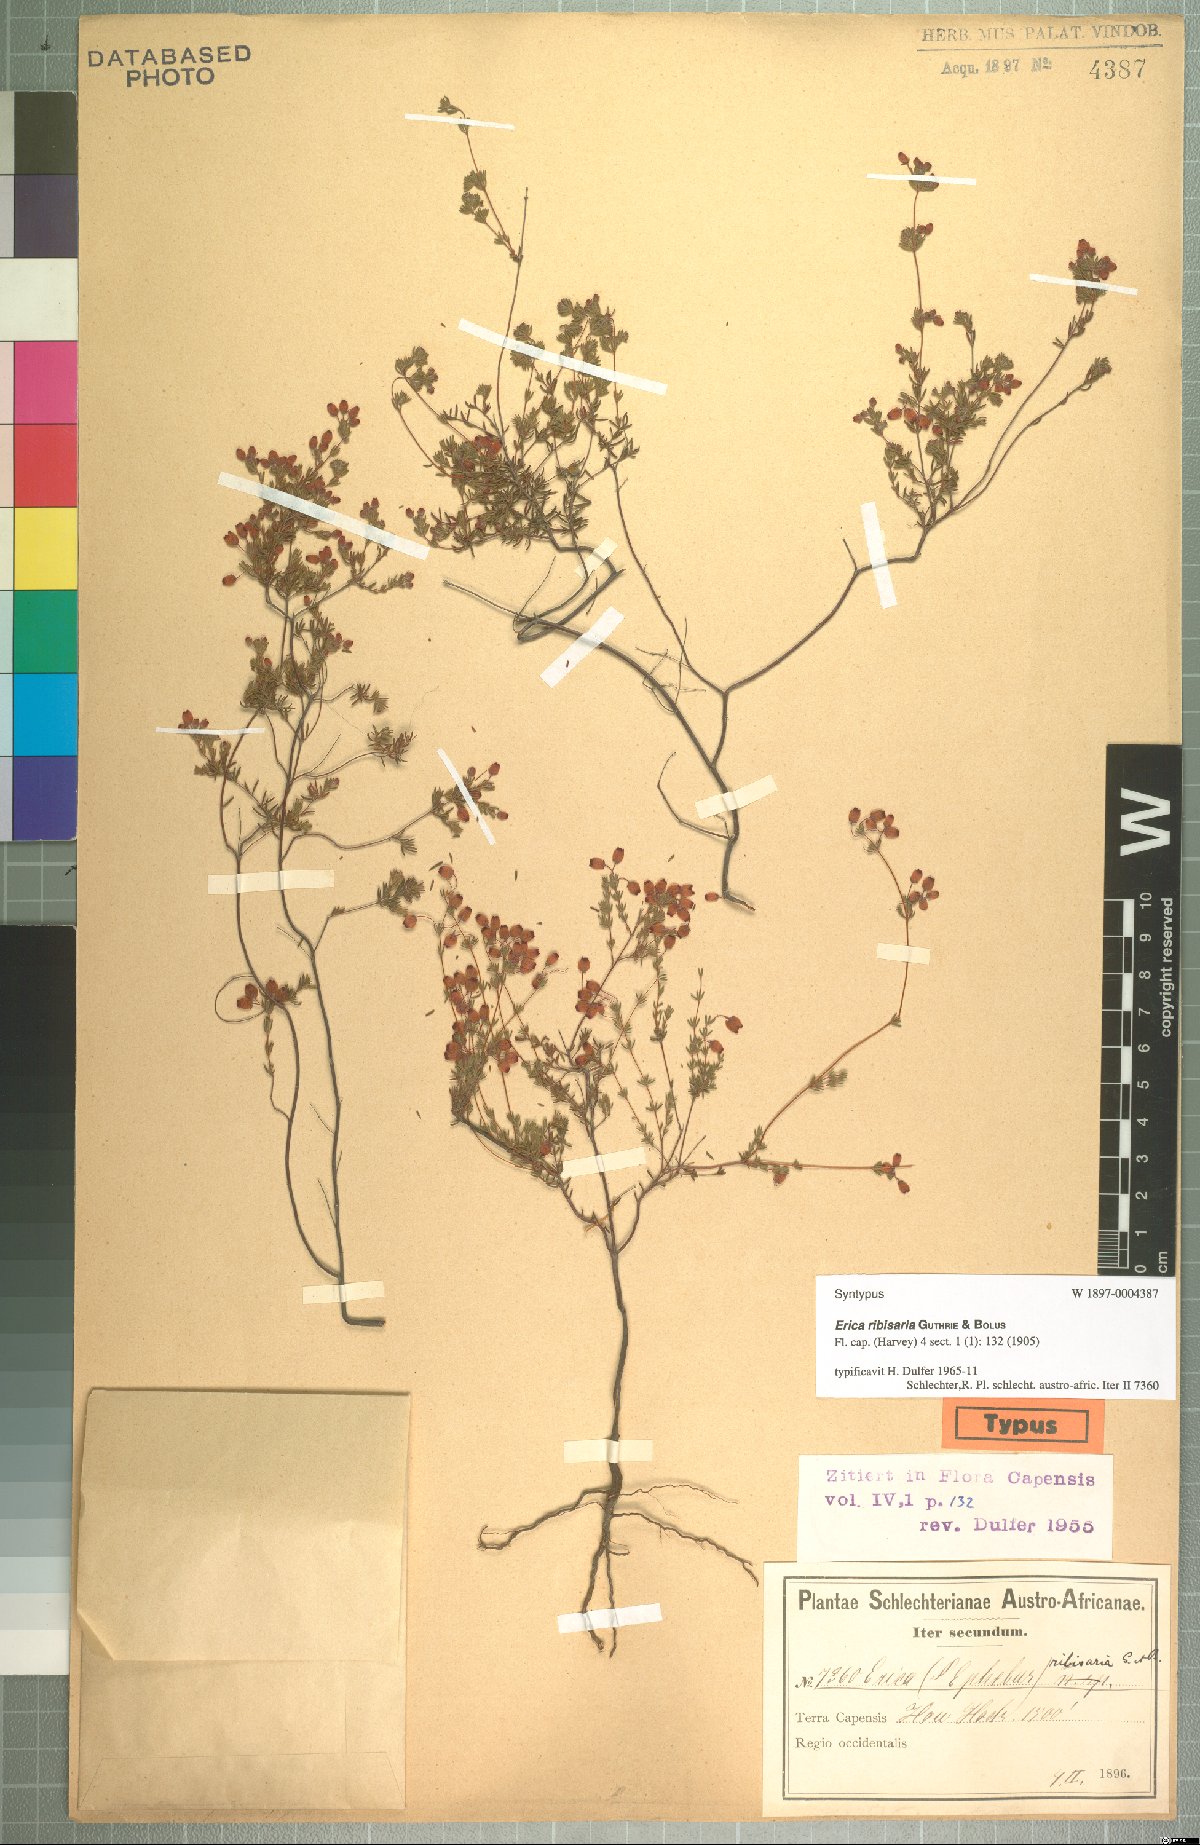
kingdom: Plantae
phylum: Tracheophyta
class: Magnoliopsida
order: Ericales
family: Ericaceae
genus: Erica
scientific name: Erica ribisaria
